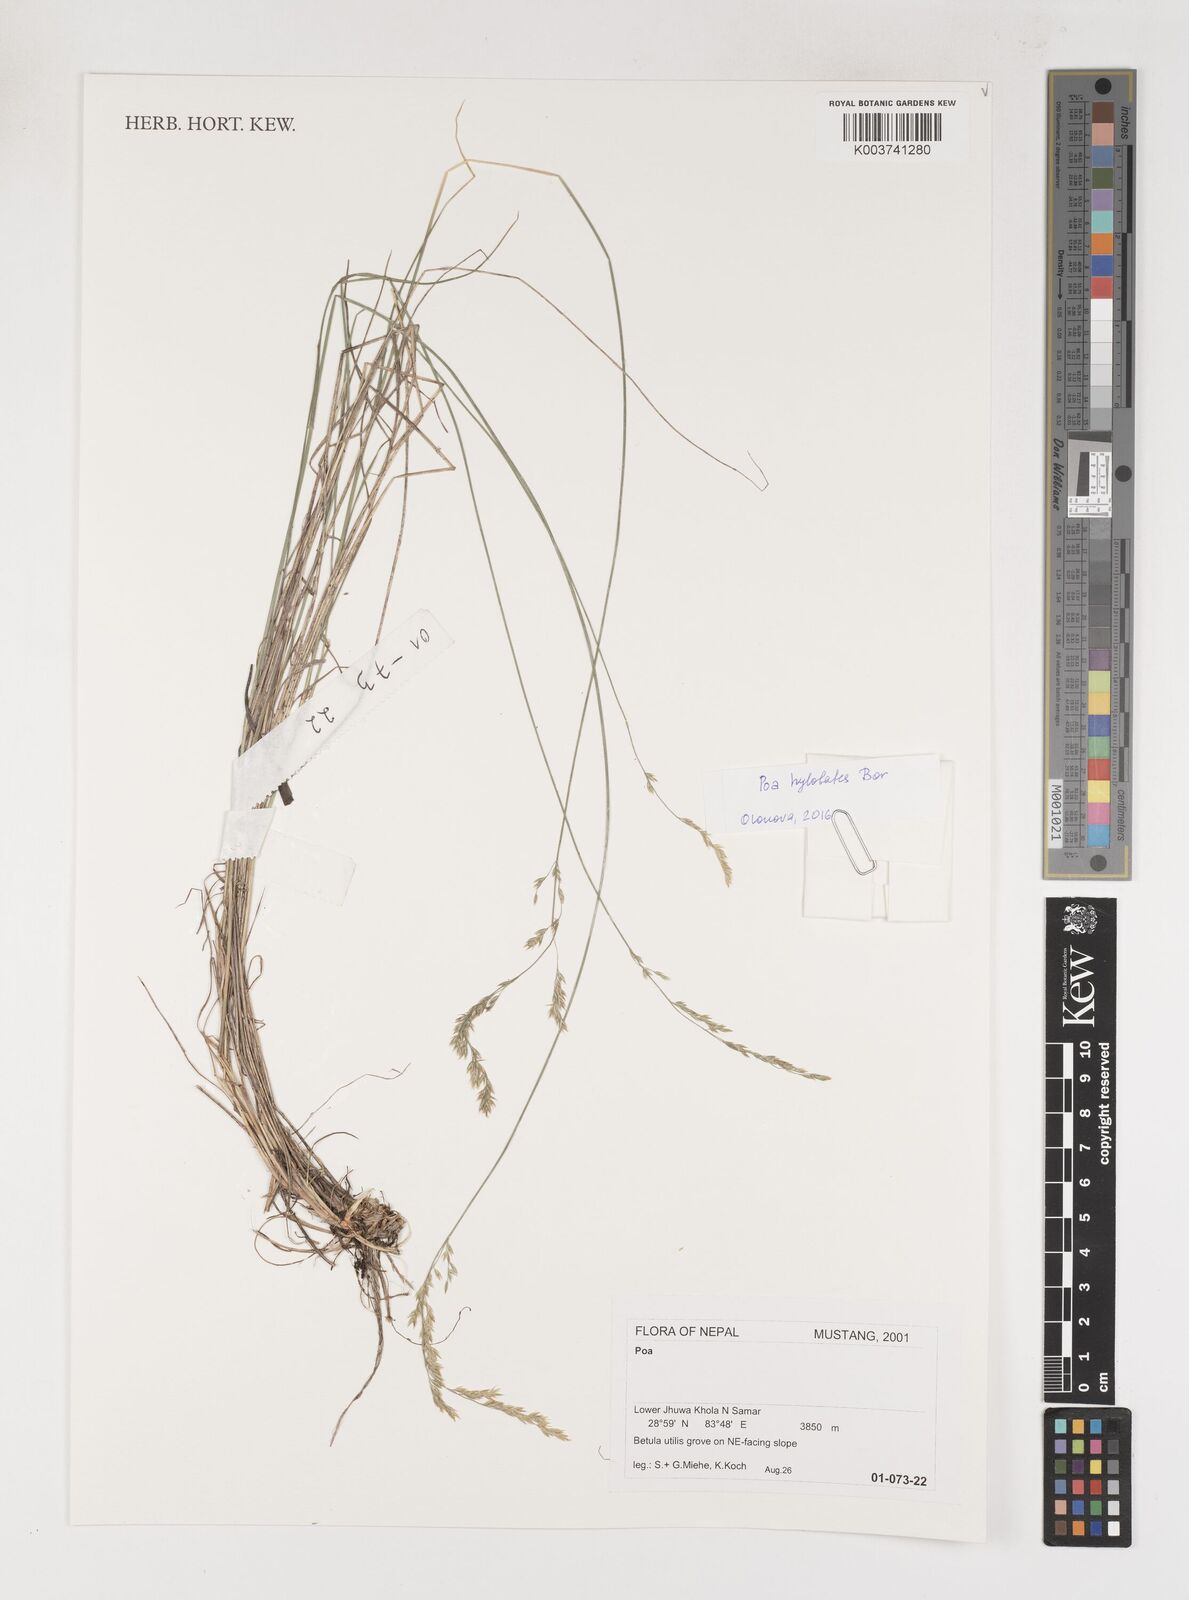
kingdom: Plantae
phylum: Tracheophyta
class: Liliopsida
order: Poales
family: Poaceae
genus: Poa
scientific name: Poa
